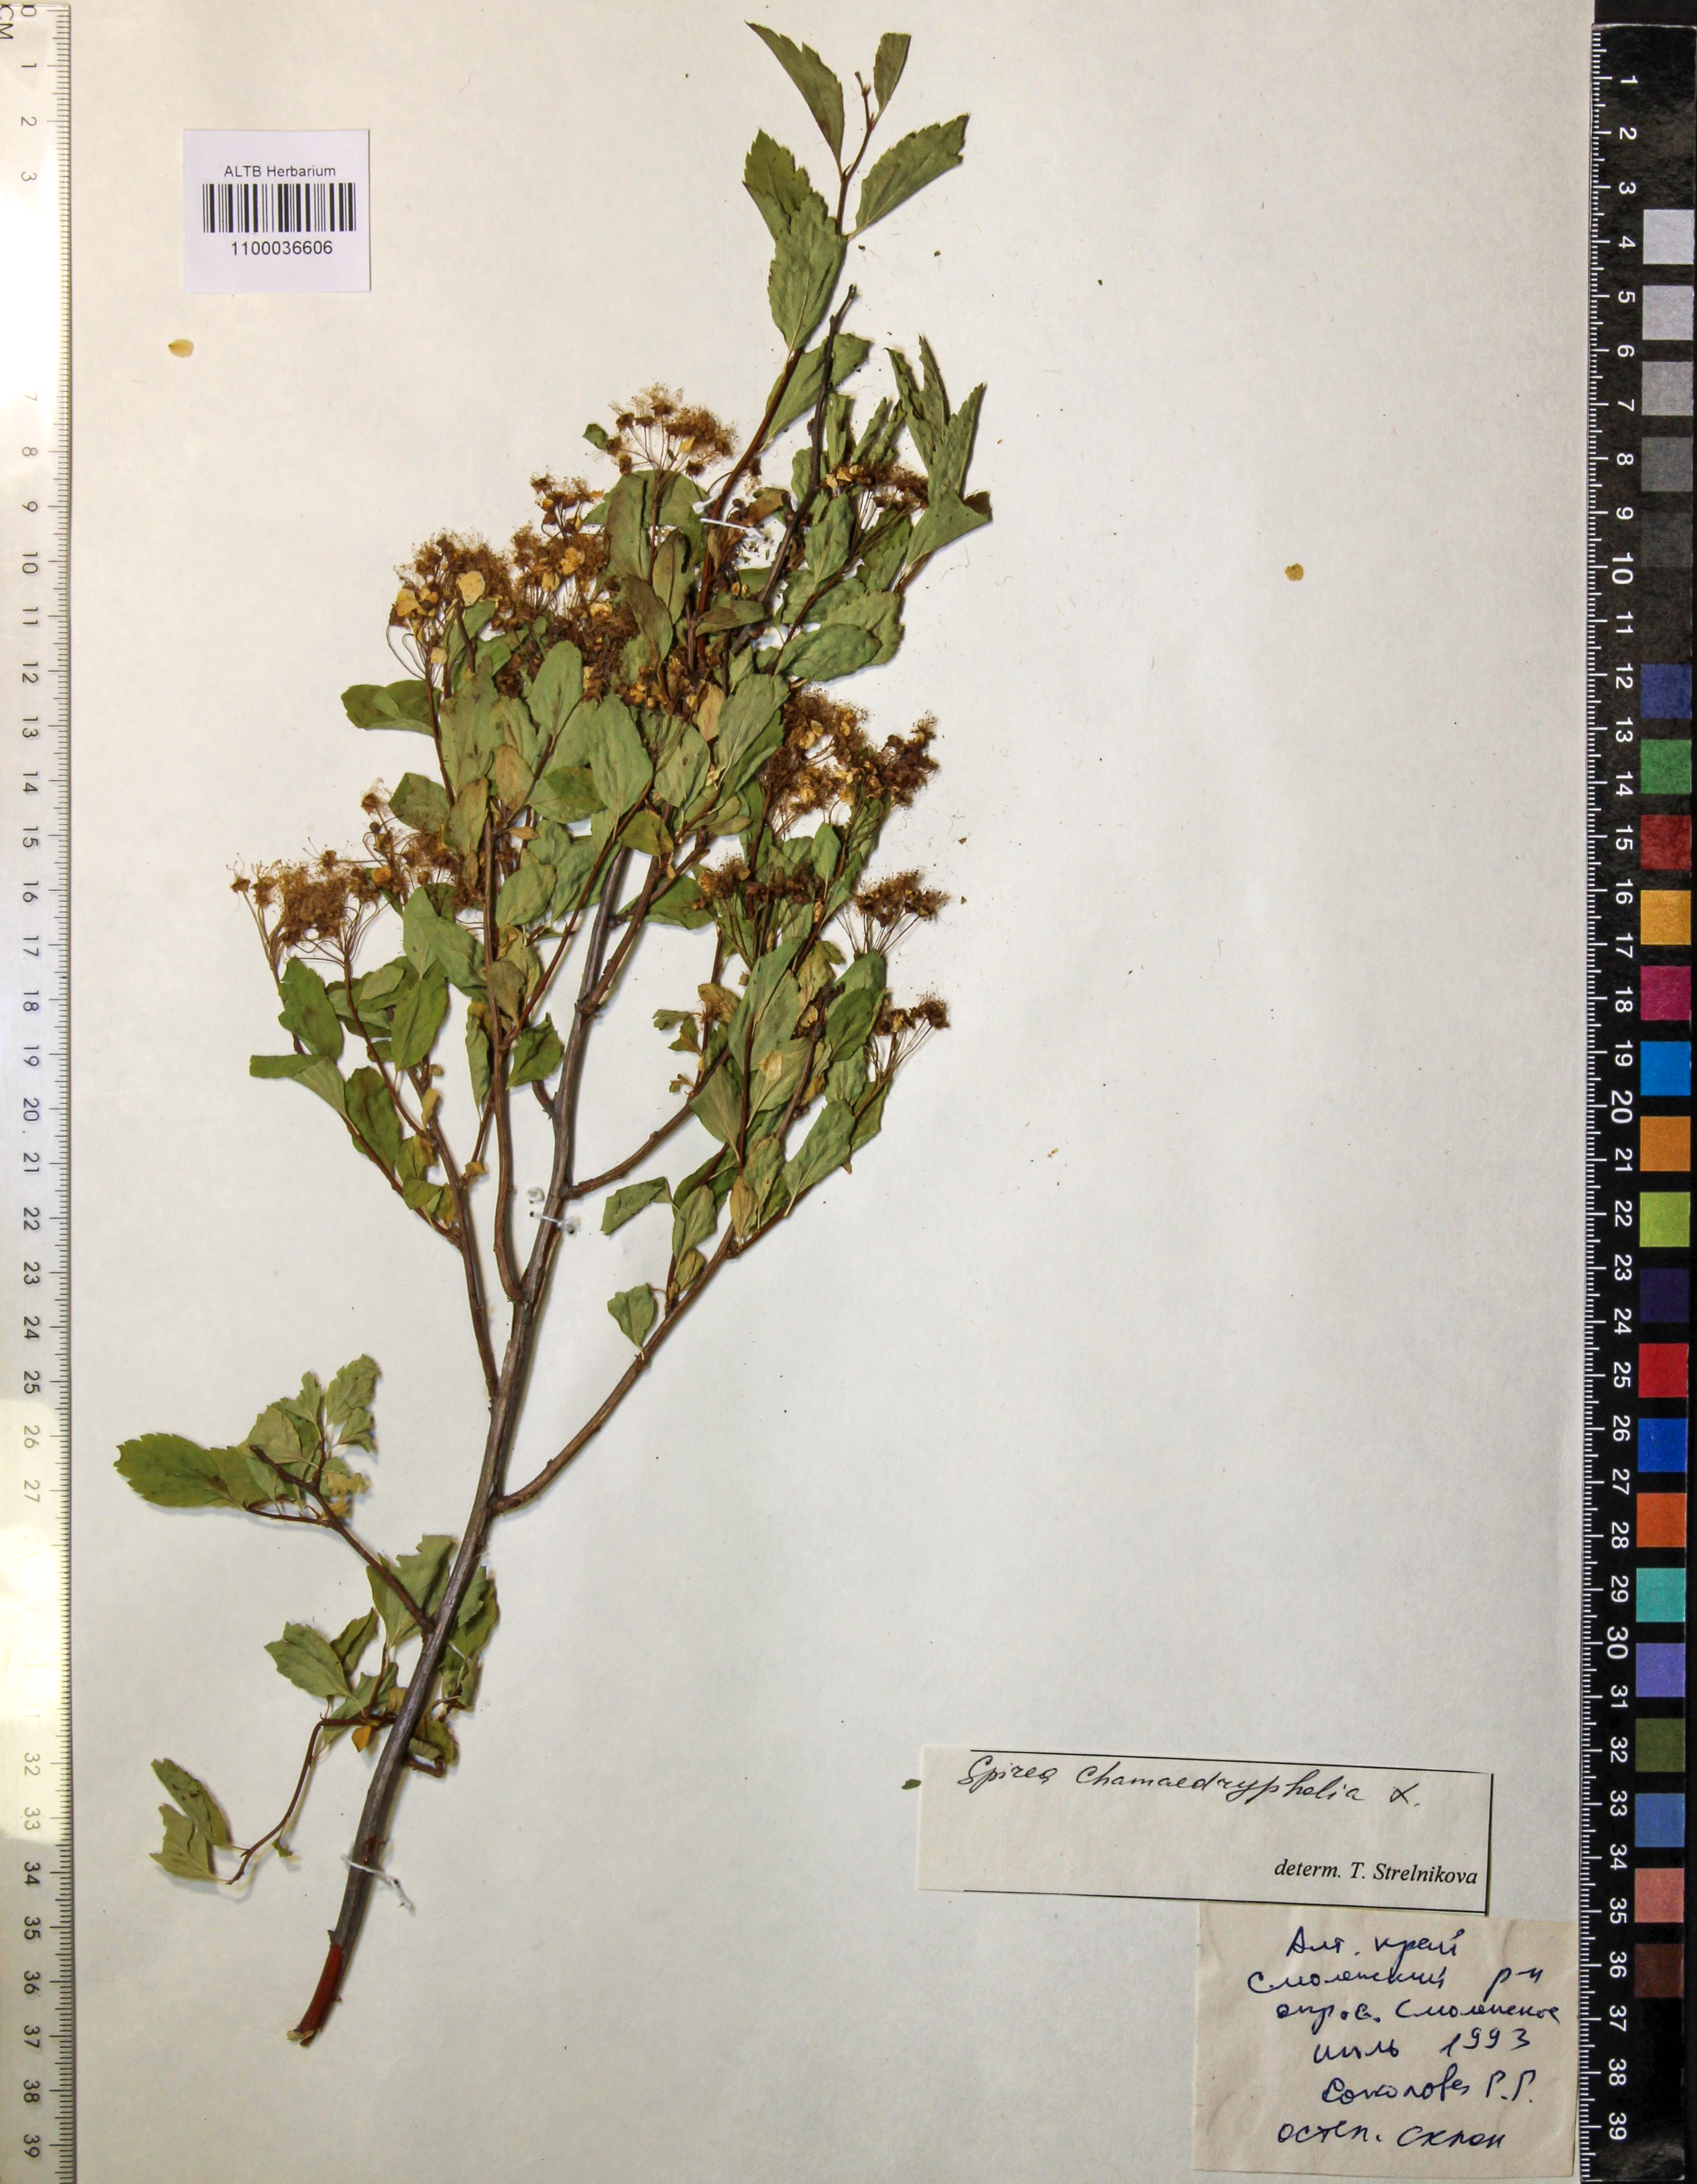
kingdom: Plantae
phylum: Tracheophyta
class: Magnoliopsida
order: Rosales
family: Rosaceae
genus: Spiraea
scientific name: Spiraea chamaedryfolia
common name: Elm-leaved spiraea
